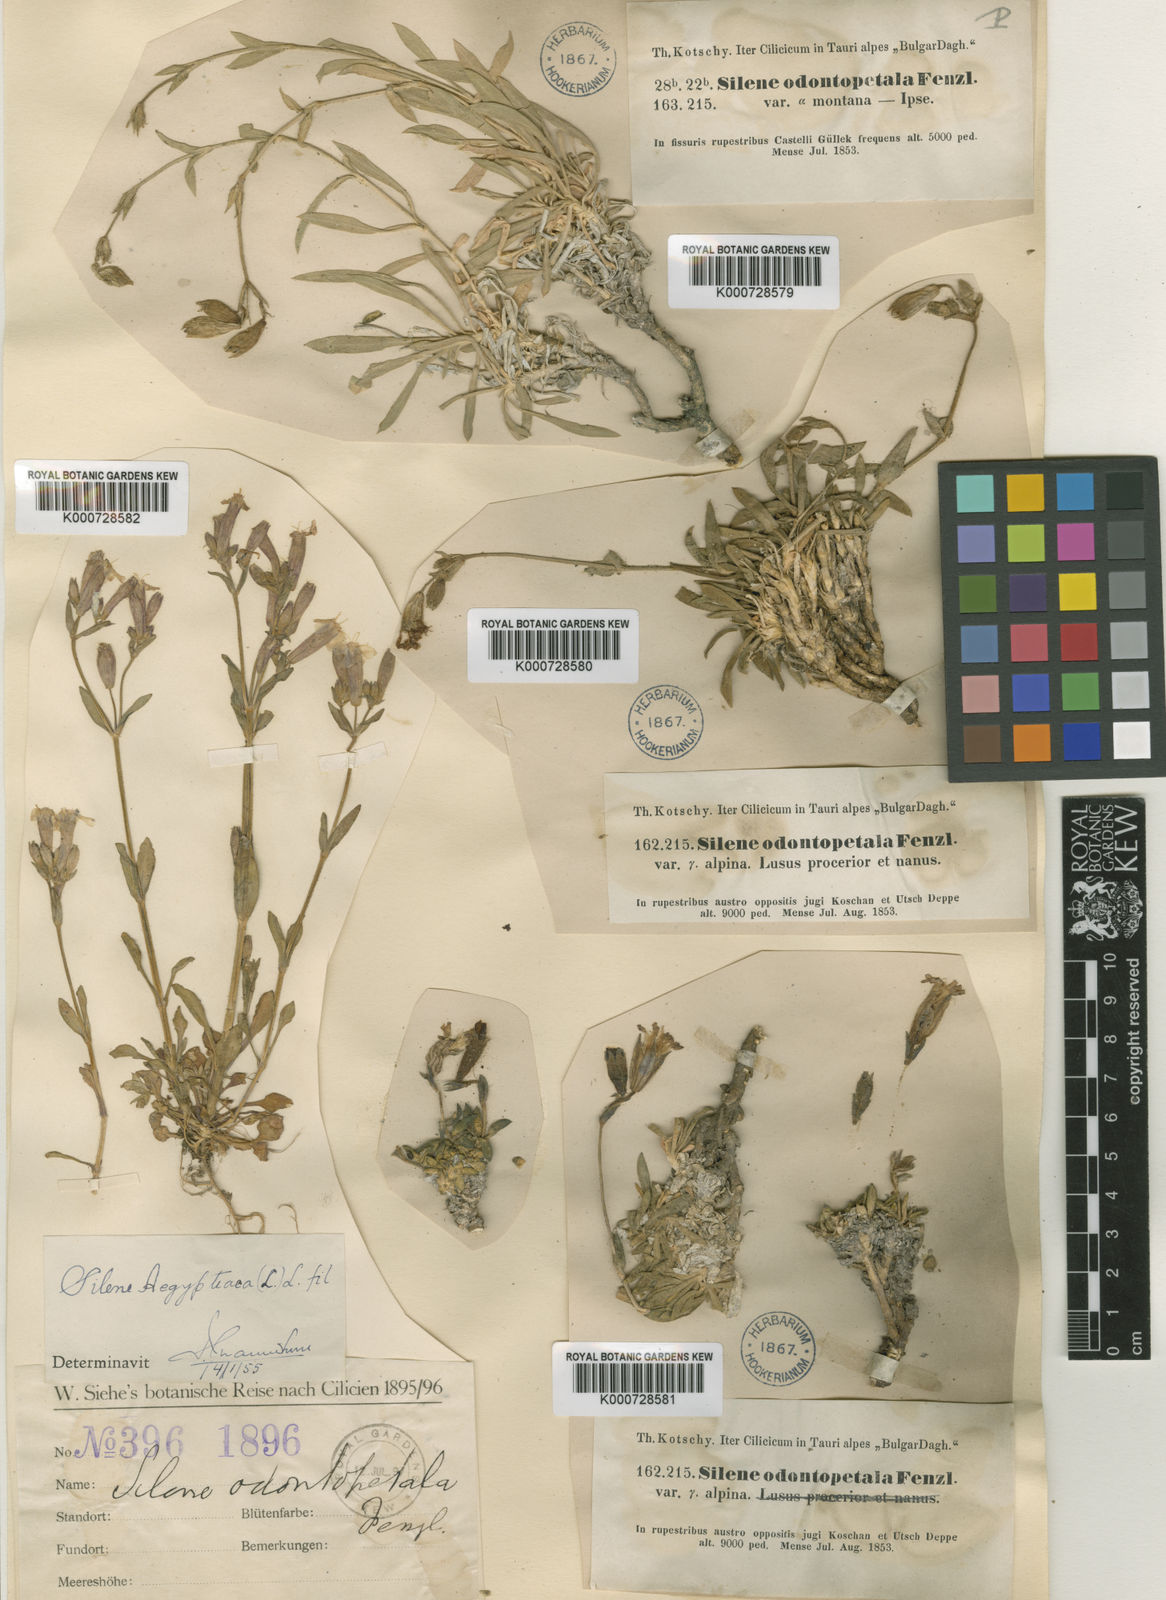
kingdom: Plantae
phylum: Tracheophyta
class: Magnoliopsida
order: Caryophyllales
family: Caryophyllaceae
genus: Silene
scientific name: Silene odontopetala
